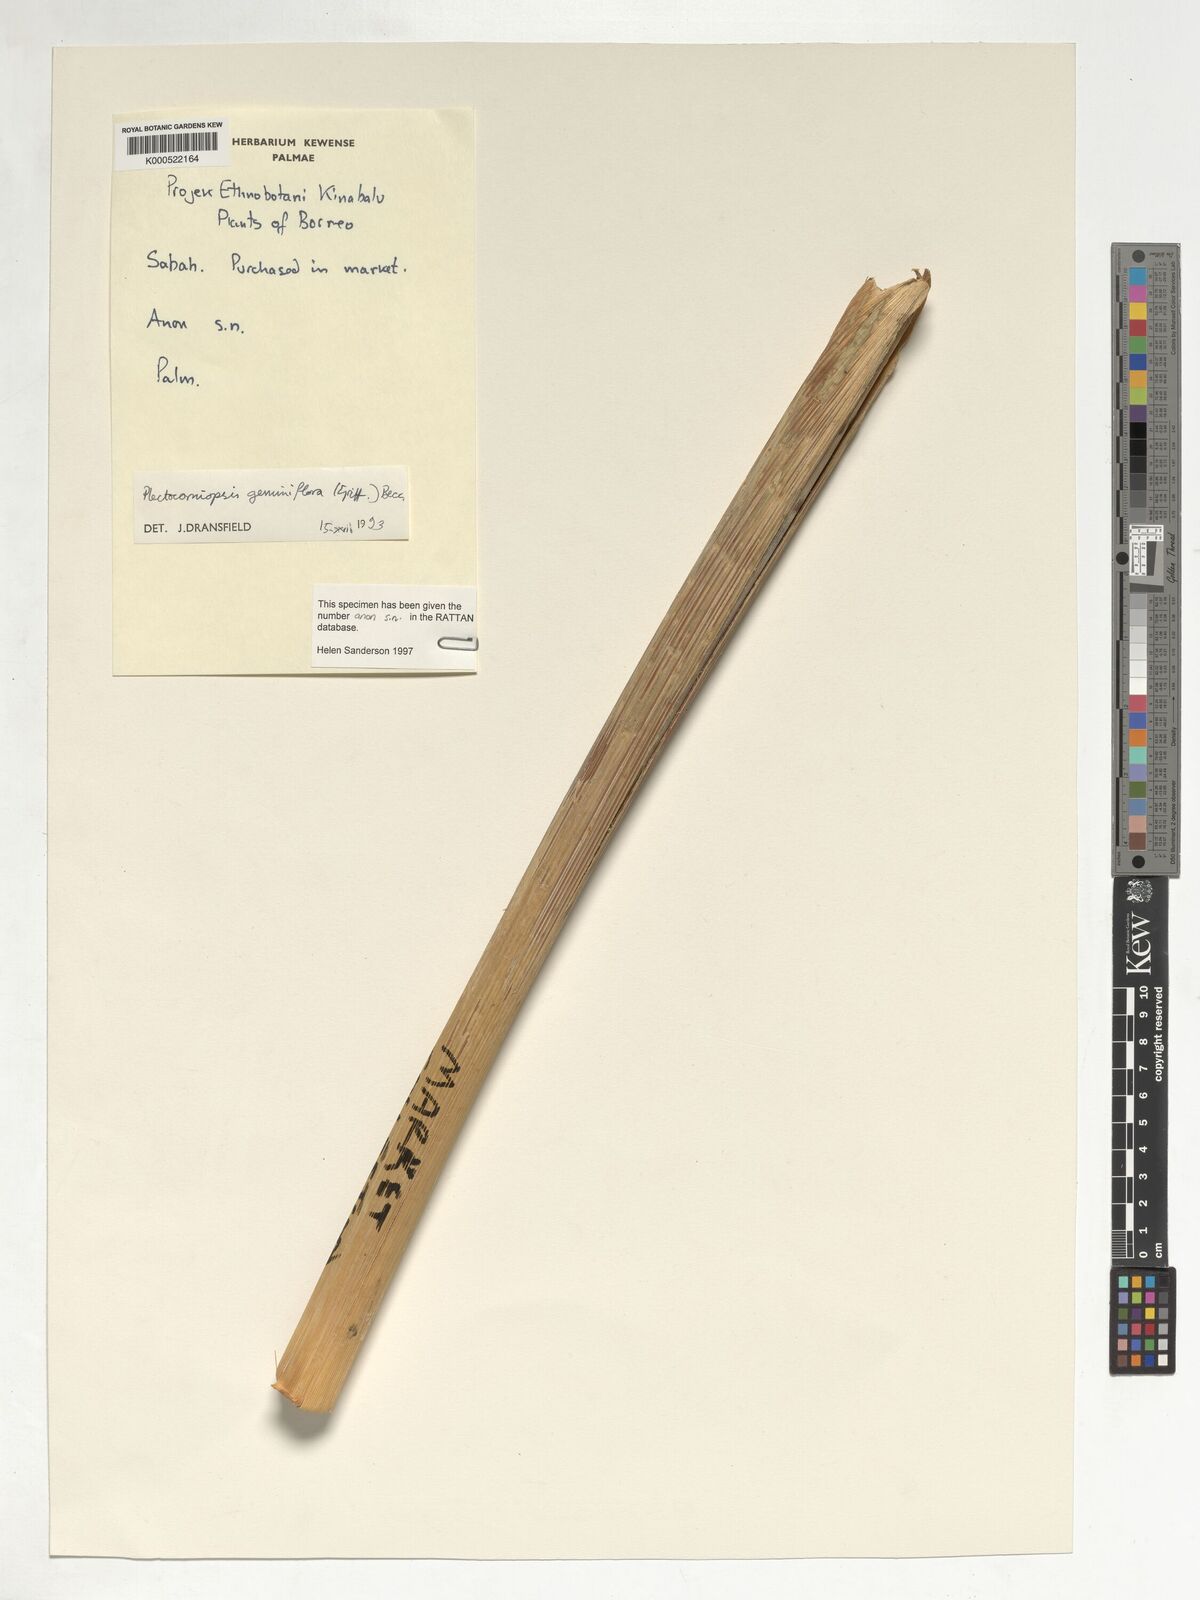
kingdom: Plantae
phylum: Tracheophyta
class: Liliopsida
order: Arecales
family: Arecaceae
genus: Plectocomiopsis
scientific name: Plectocomiopsis geminiflora
